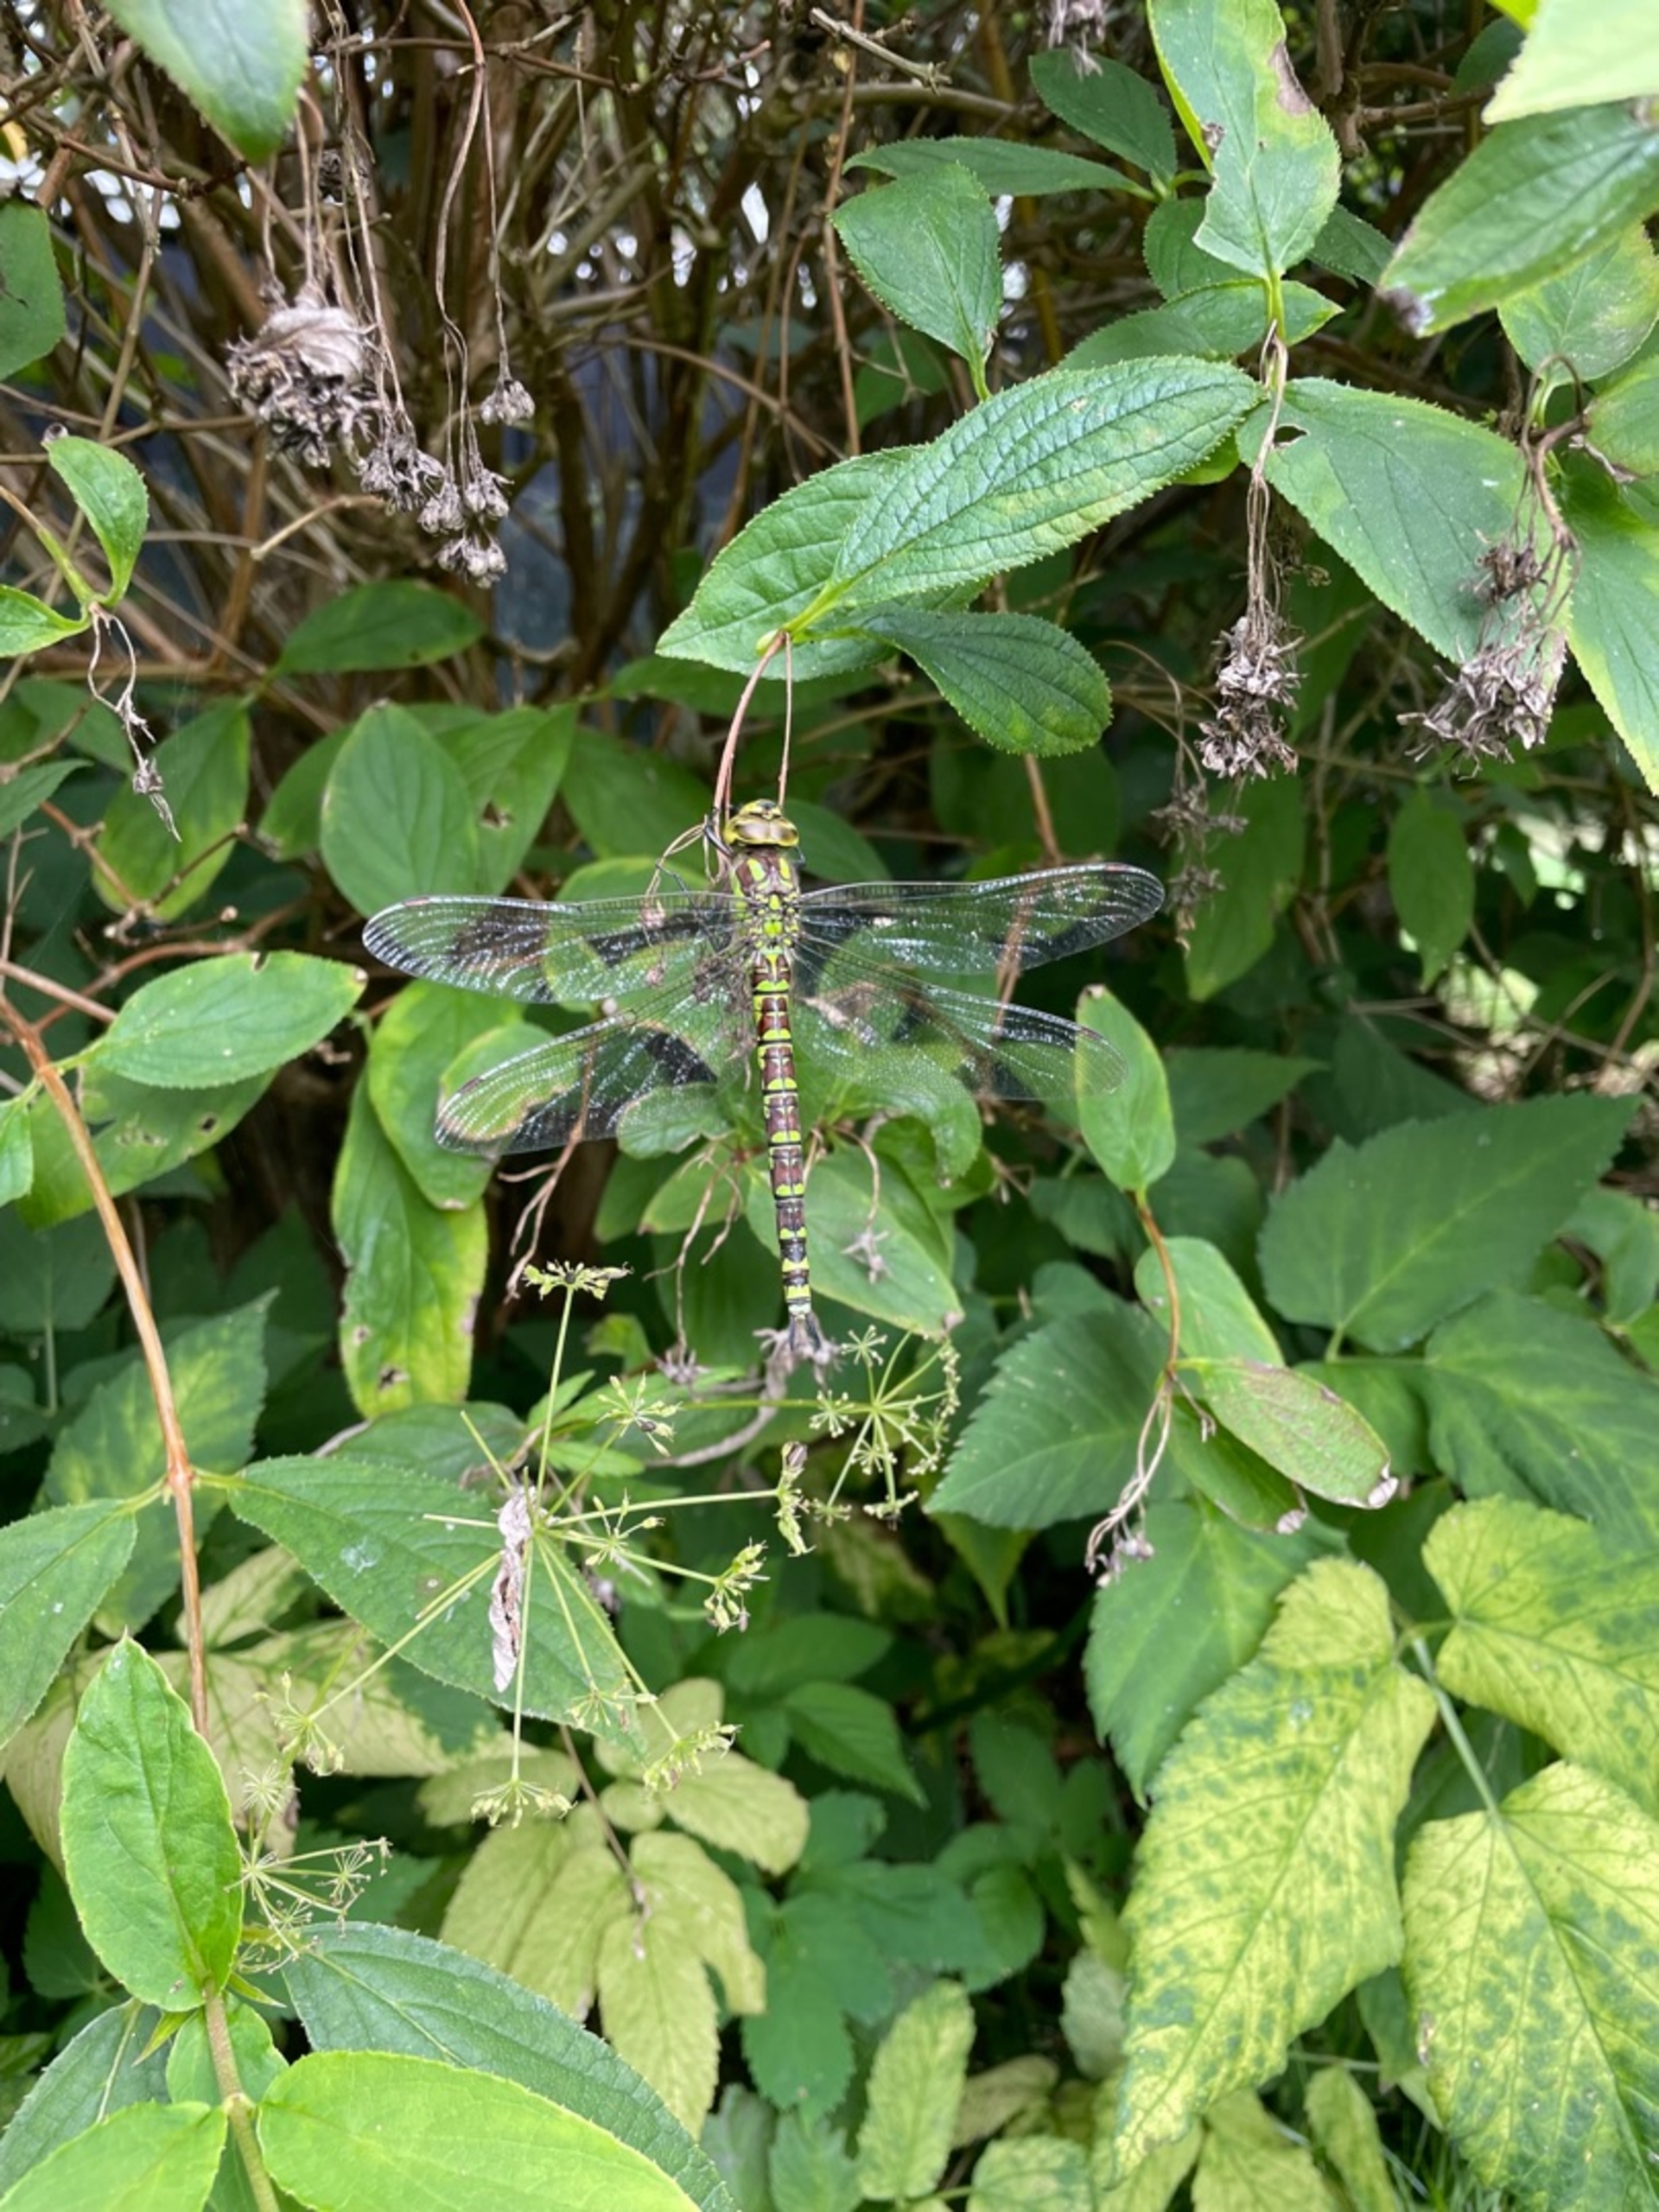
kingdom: Animalia
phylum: Arthropoda
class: Insecta
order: Odonata
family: Aeshnidae
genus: Aeshna
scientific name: Aeshna cyanea
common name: Blå mosaikguldsmed
